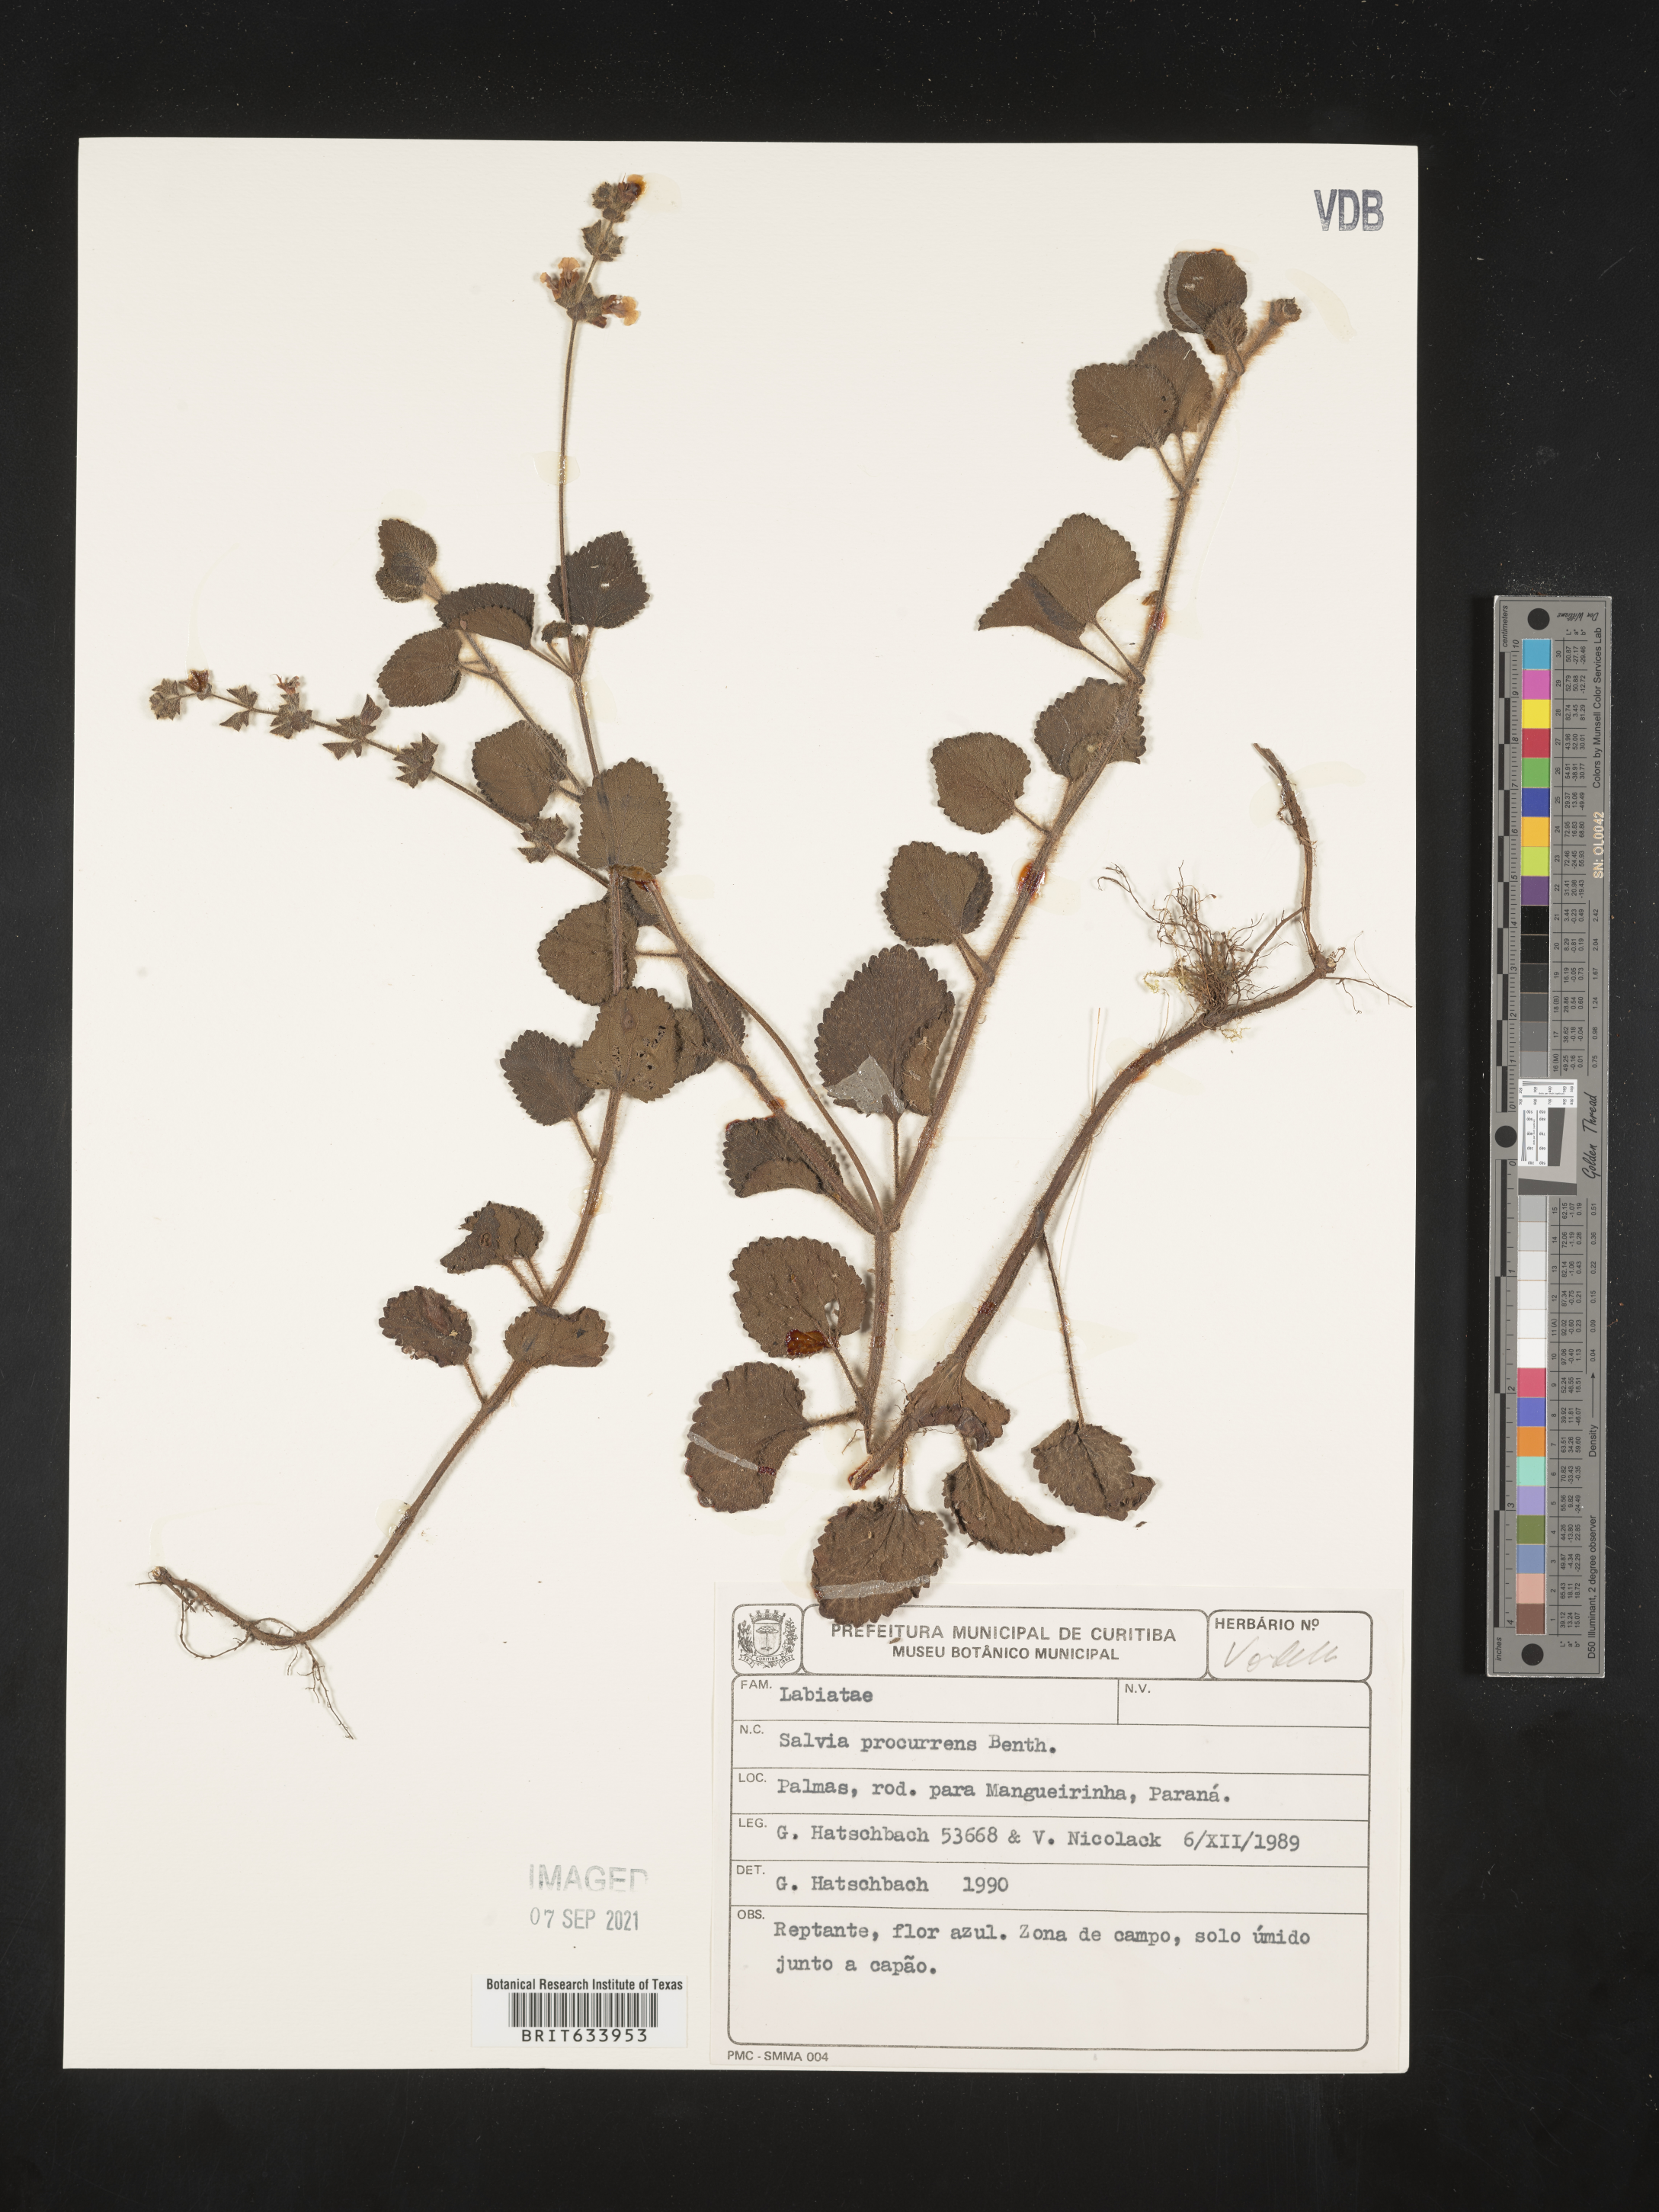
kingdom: Plantae
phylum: Tracheophyta
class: Magnoliopsida
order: Lamiales
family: Lamiaceae
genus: Salvia
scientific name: Salvia
